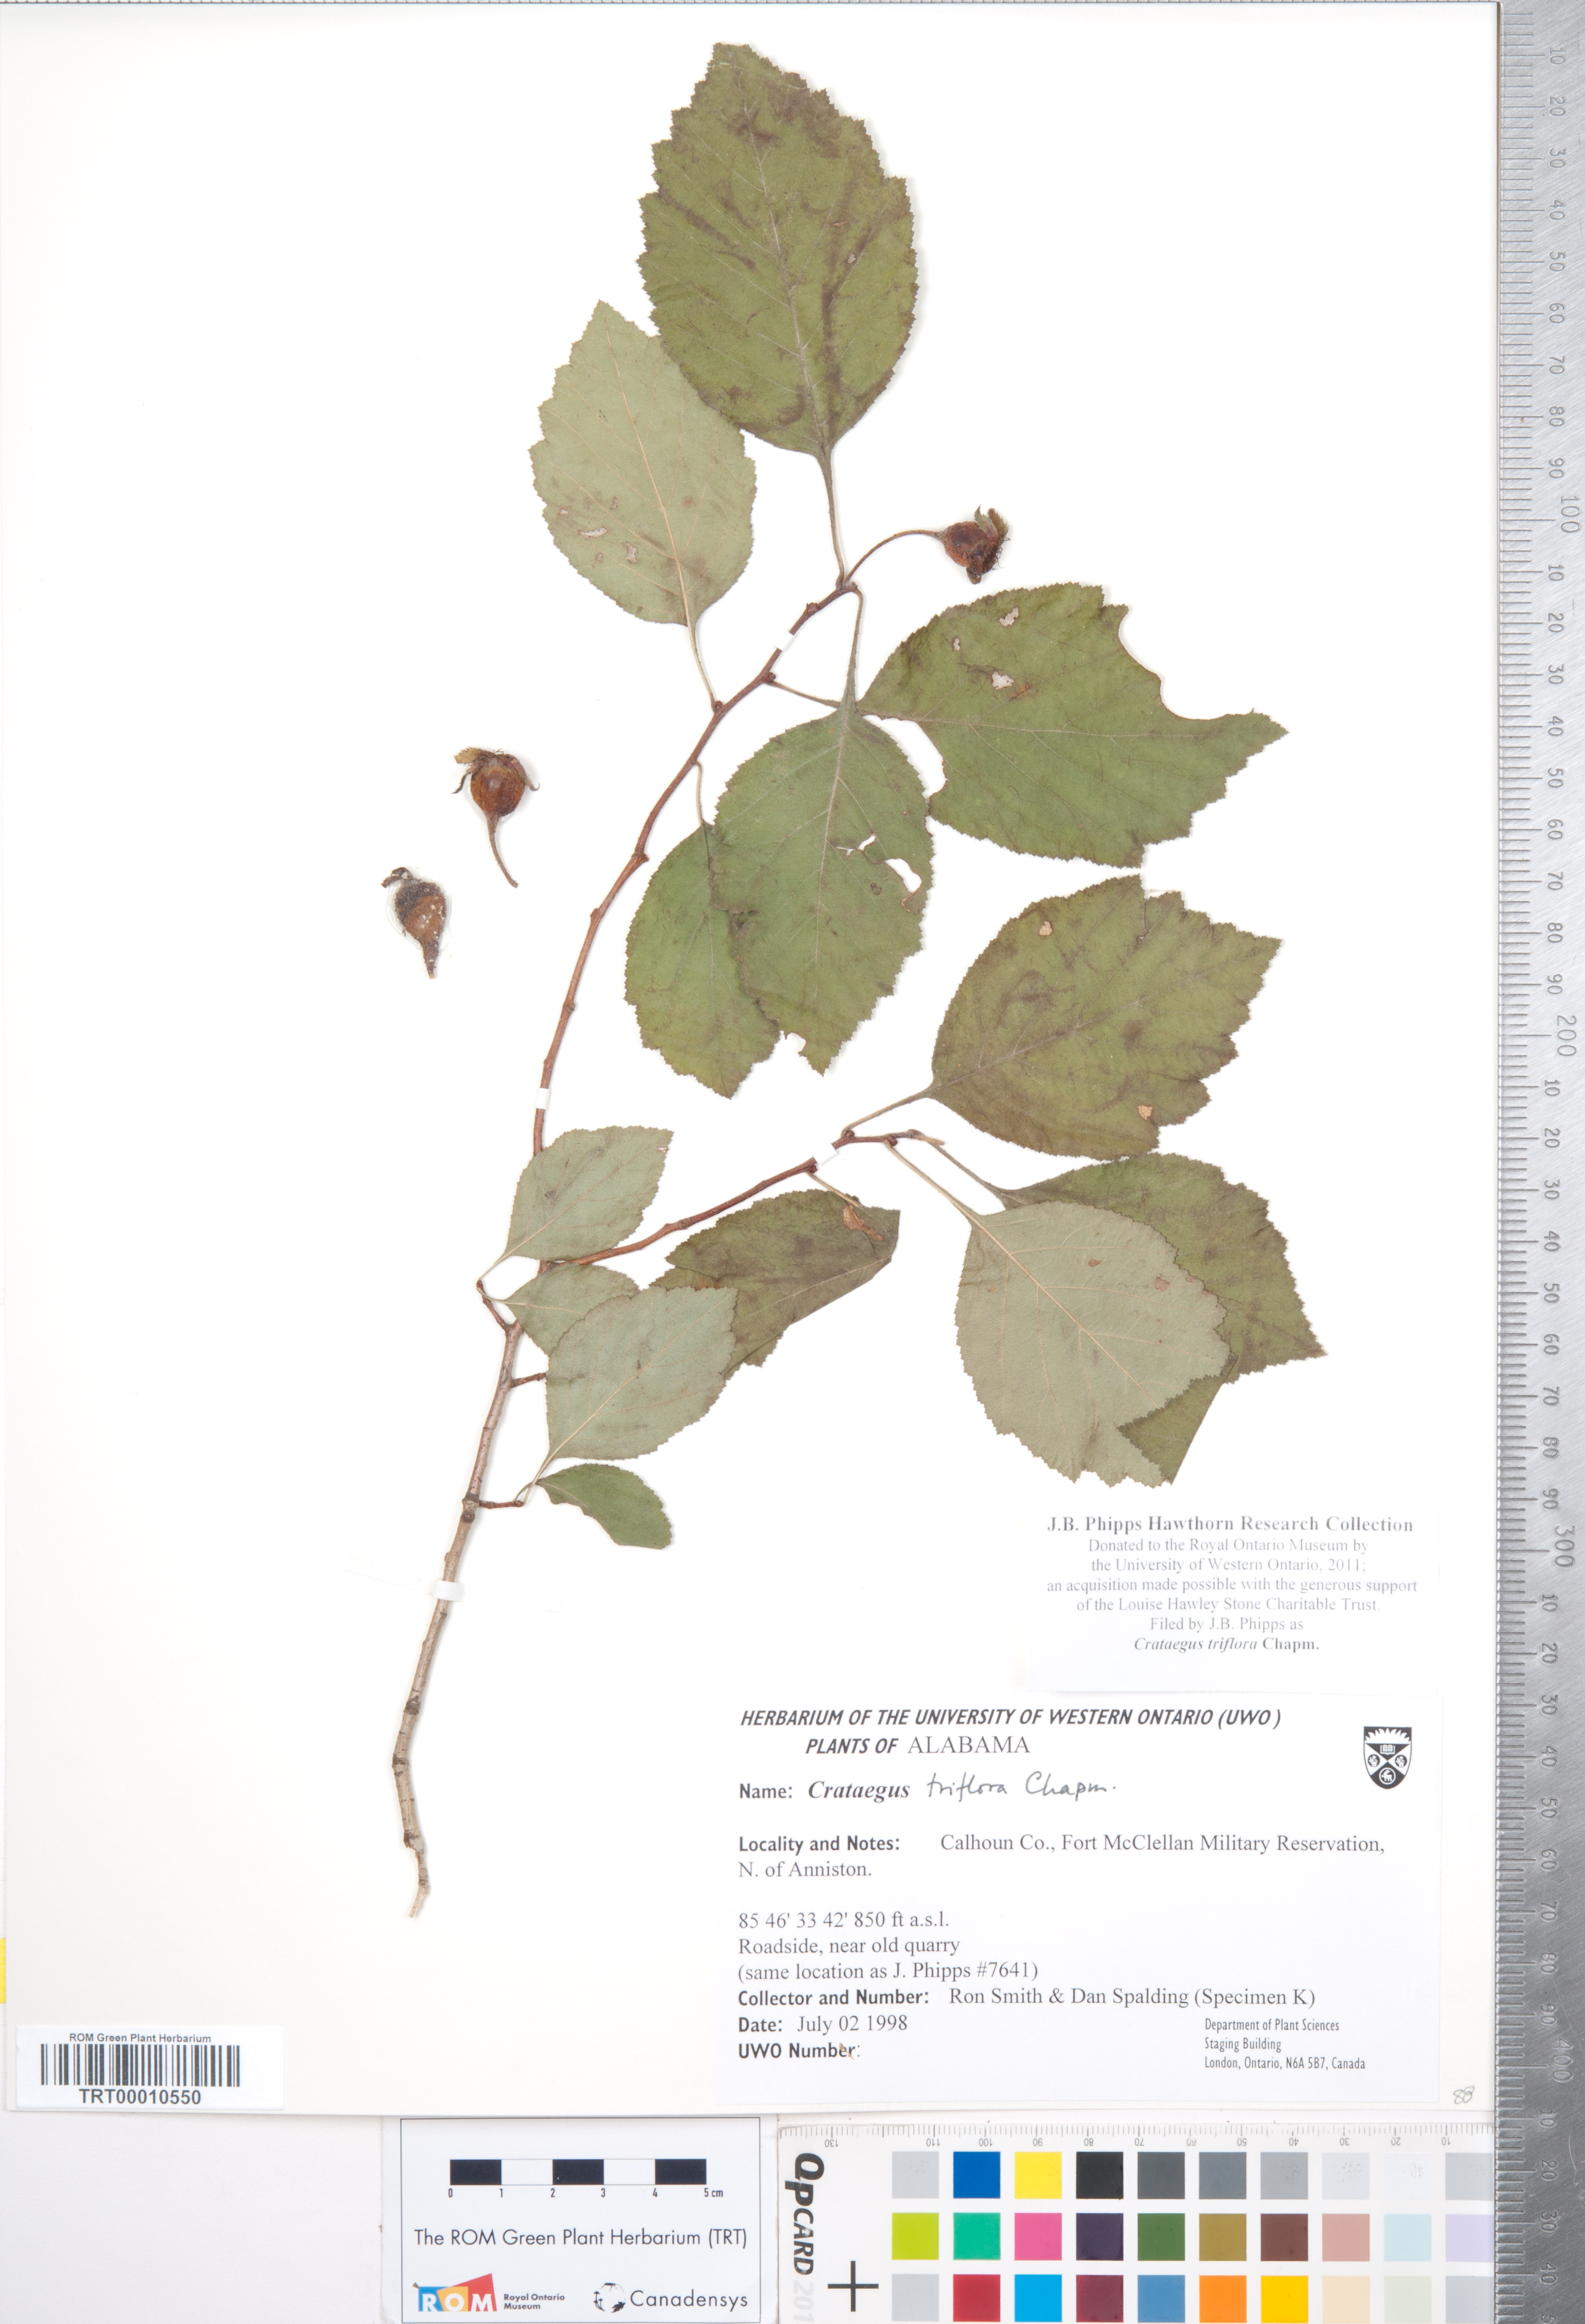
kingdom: Plantae
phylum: Tracheophyta
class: Magnoliopsida
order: Rosales
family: Rosaceae
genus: Crataegus
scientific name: Crataegus triflora
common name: Three-flower hawthorn
